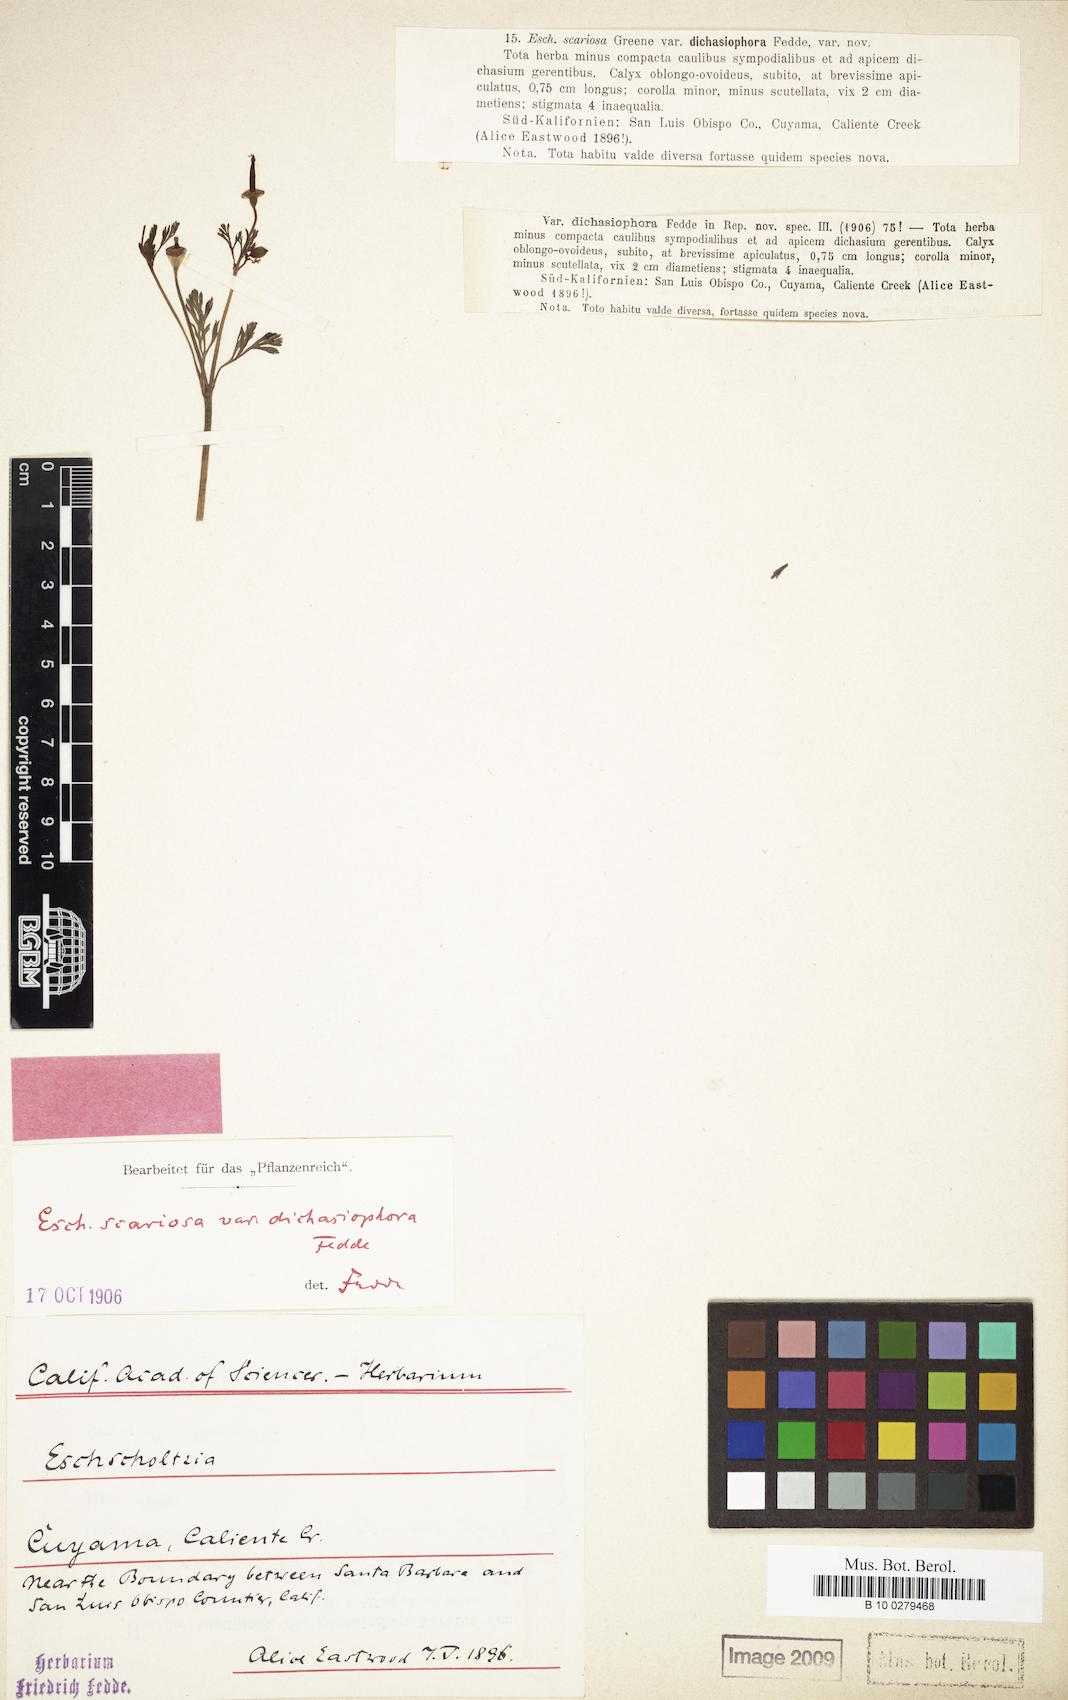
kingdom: Plantae
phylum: Tracheophyta
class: Magnoliopsida
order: Ranunculales
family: Papaveraceae
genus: Eschscholzia
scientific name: Eschscholzia californica
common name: California poppy
